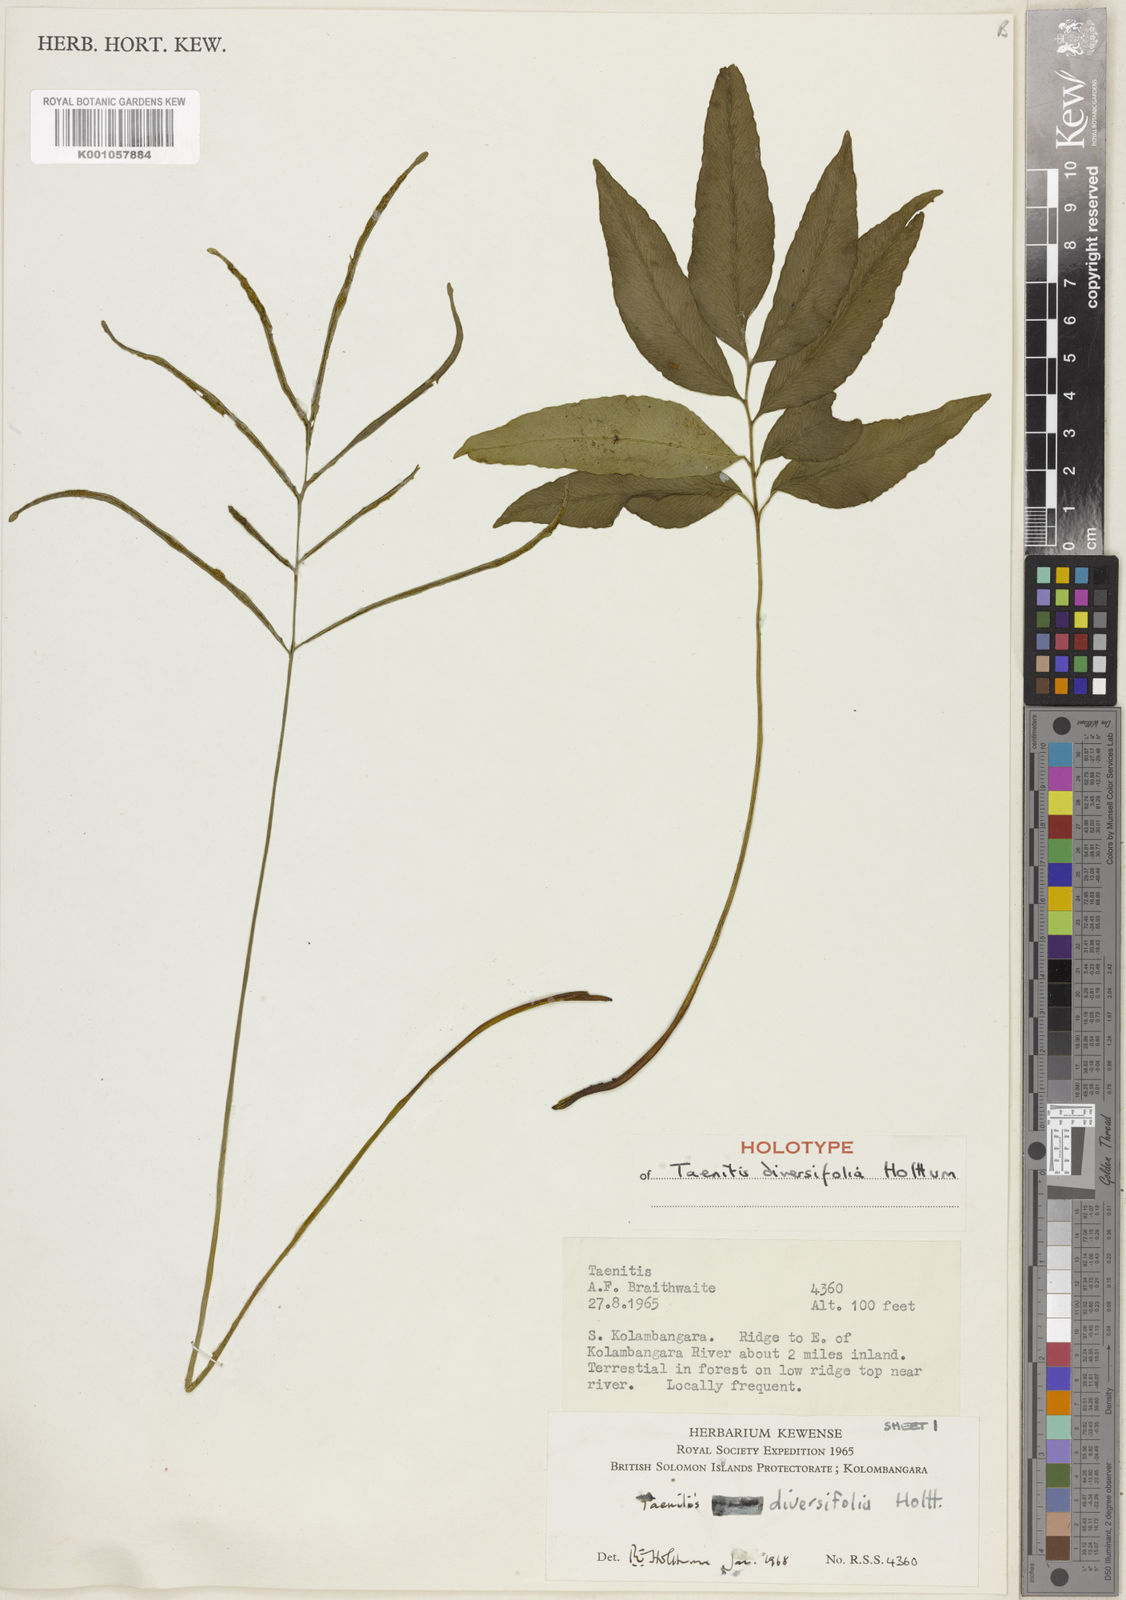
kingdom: Plantae
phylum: Tracheophyta
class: Polypodiopsida
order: Polypodiales
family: Pteridaceae
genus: Taenitis
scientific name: Taenitis diversifolia
